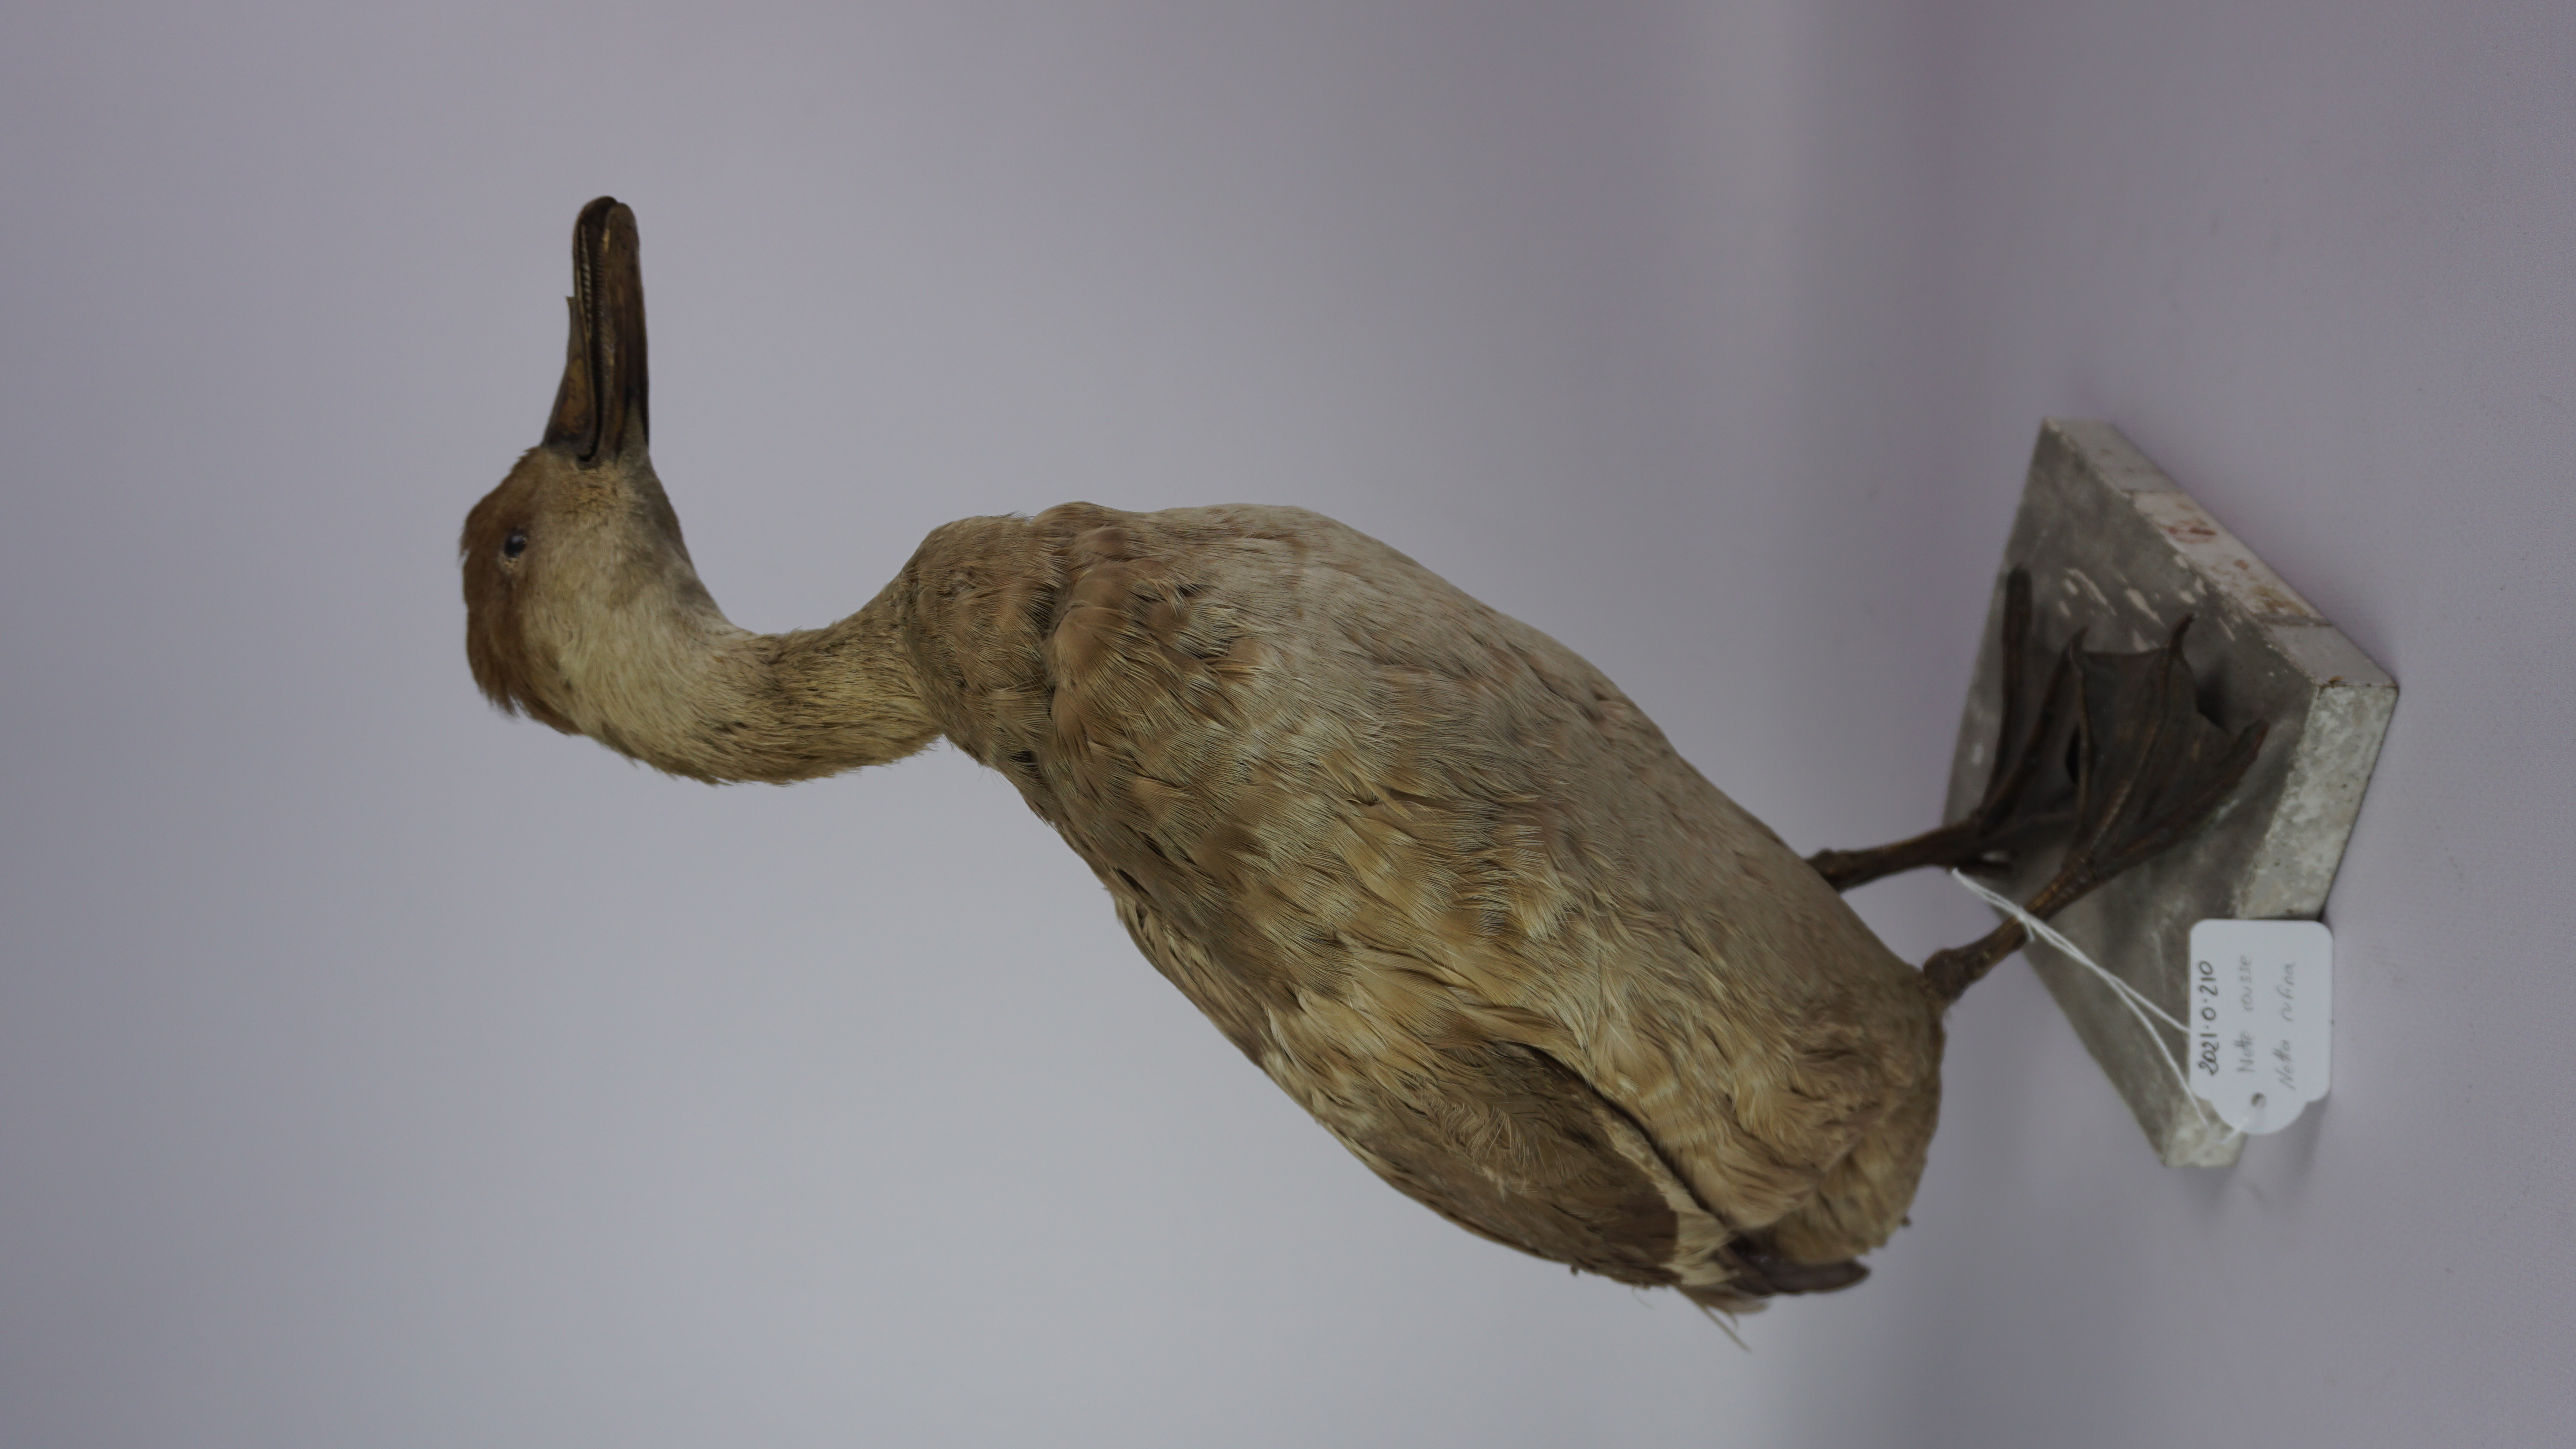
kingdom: Animalia
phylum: Chordata
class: Aves
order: Anseriformes
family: Anatidae
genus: Netta
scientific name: Netta rufina
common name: Red-crested pochard
